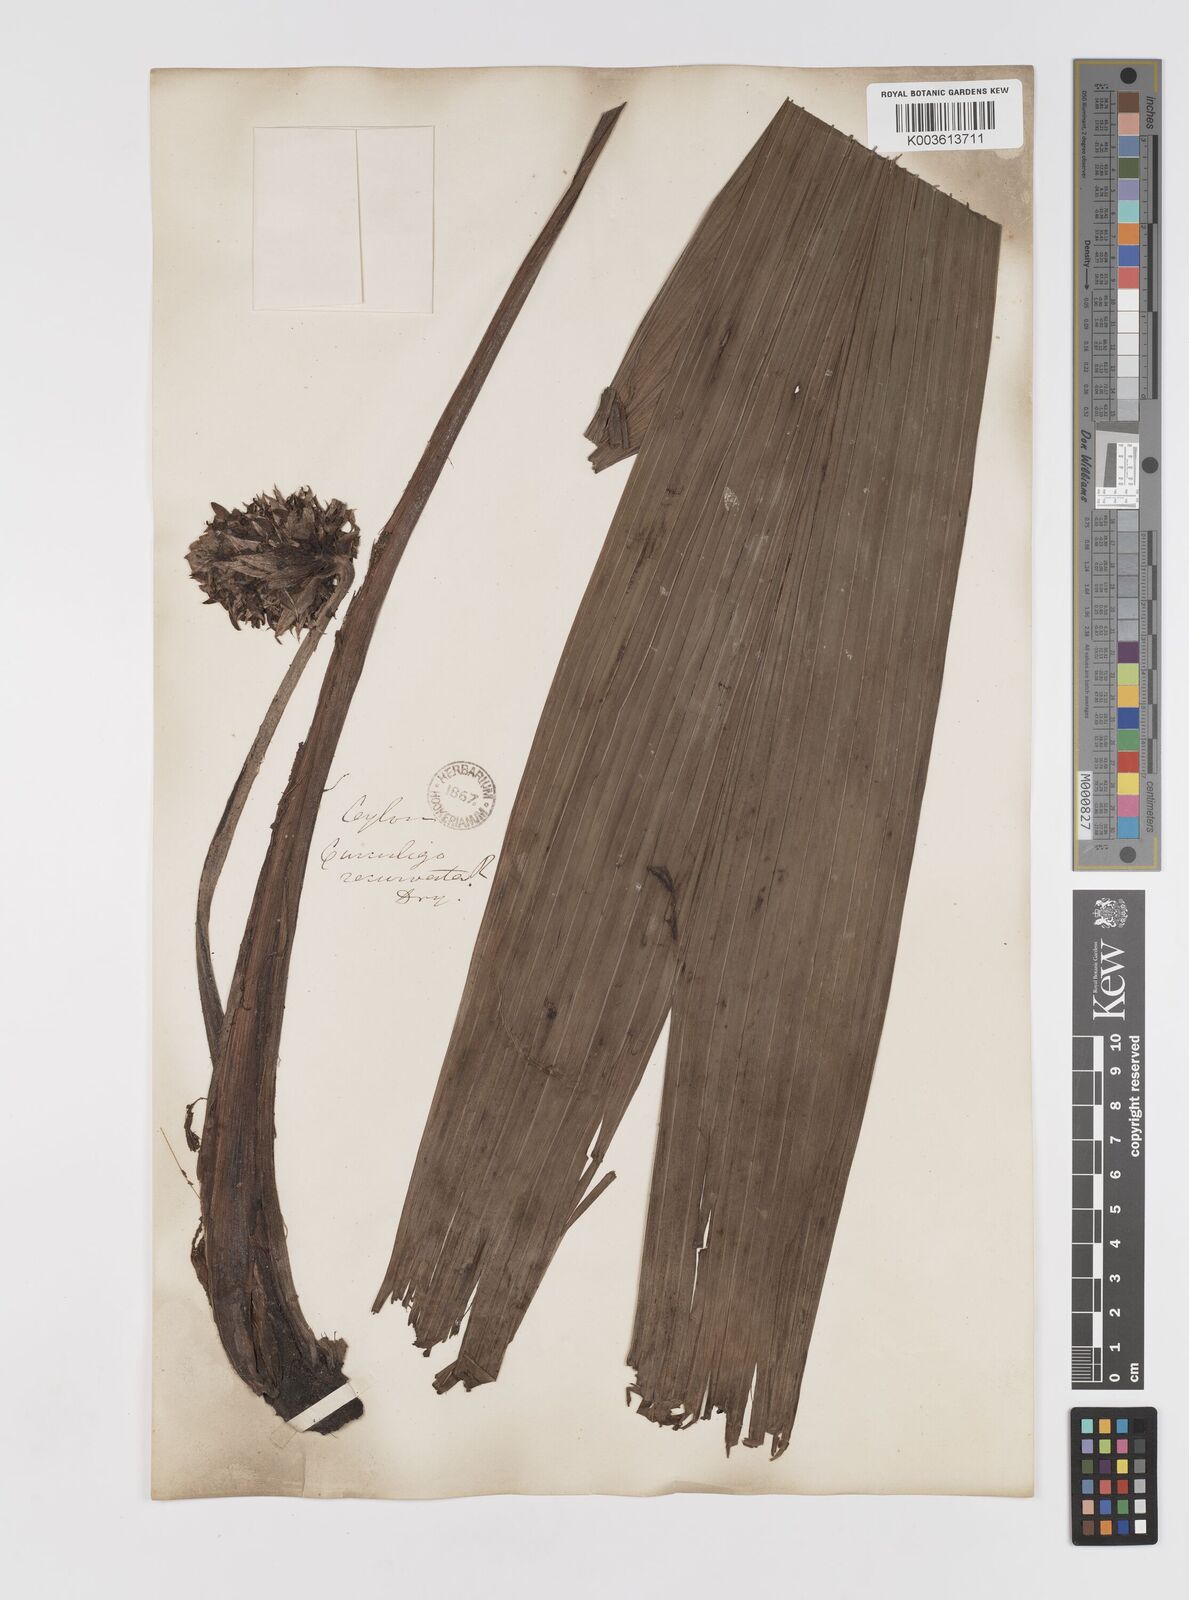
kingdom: Plantae
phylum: Tracheophyta
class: Liliopsida
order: Asparagales
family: Hypoxidaceae
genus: Curculigo
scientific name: Curculigo capitulata
